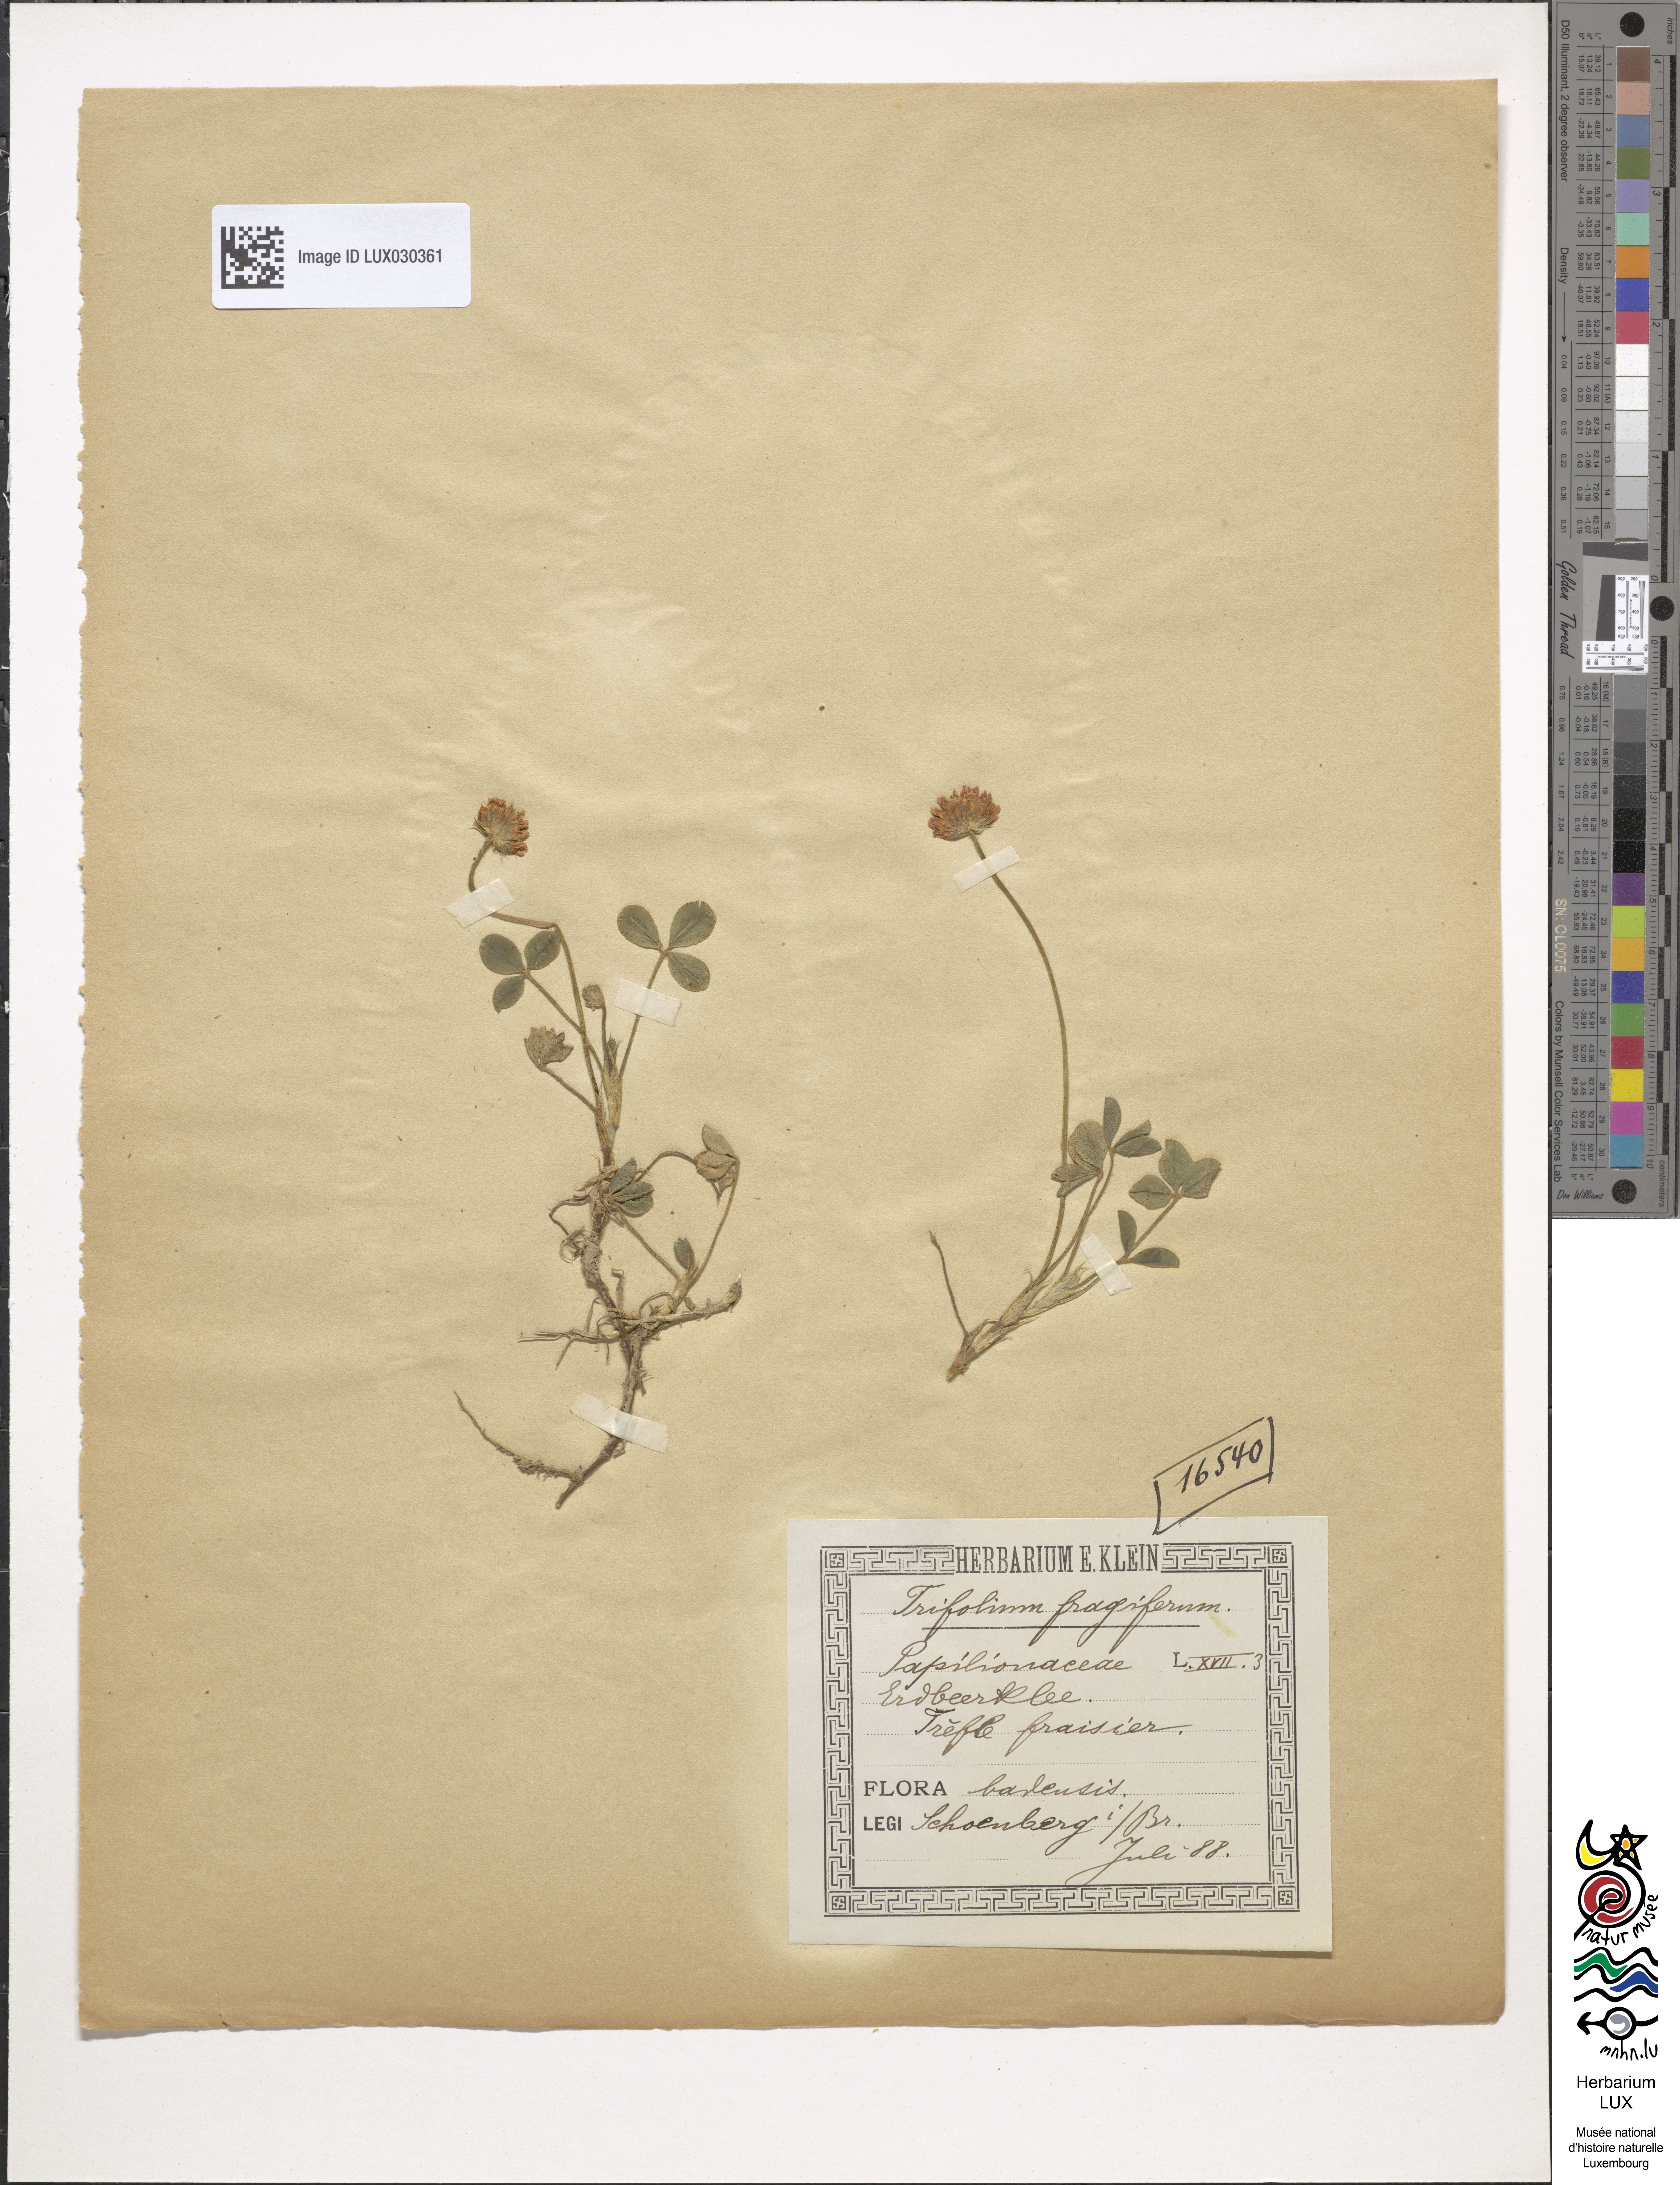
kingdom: Plantae
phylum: Tracheophyta
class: Magnoliopsida
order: Fabales
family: Fabaceae
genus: Trifolium
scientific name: Trifolium fragiferum
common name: Strawberry clover
